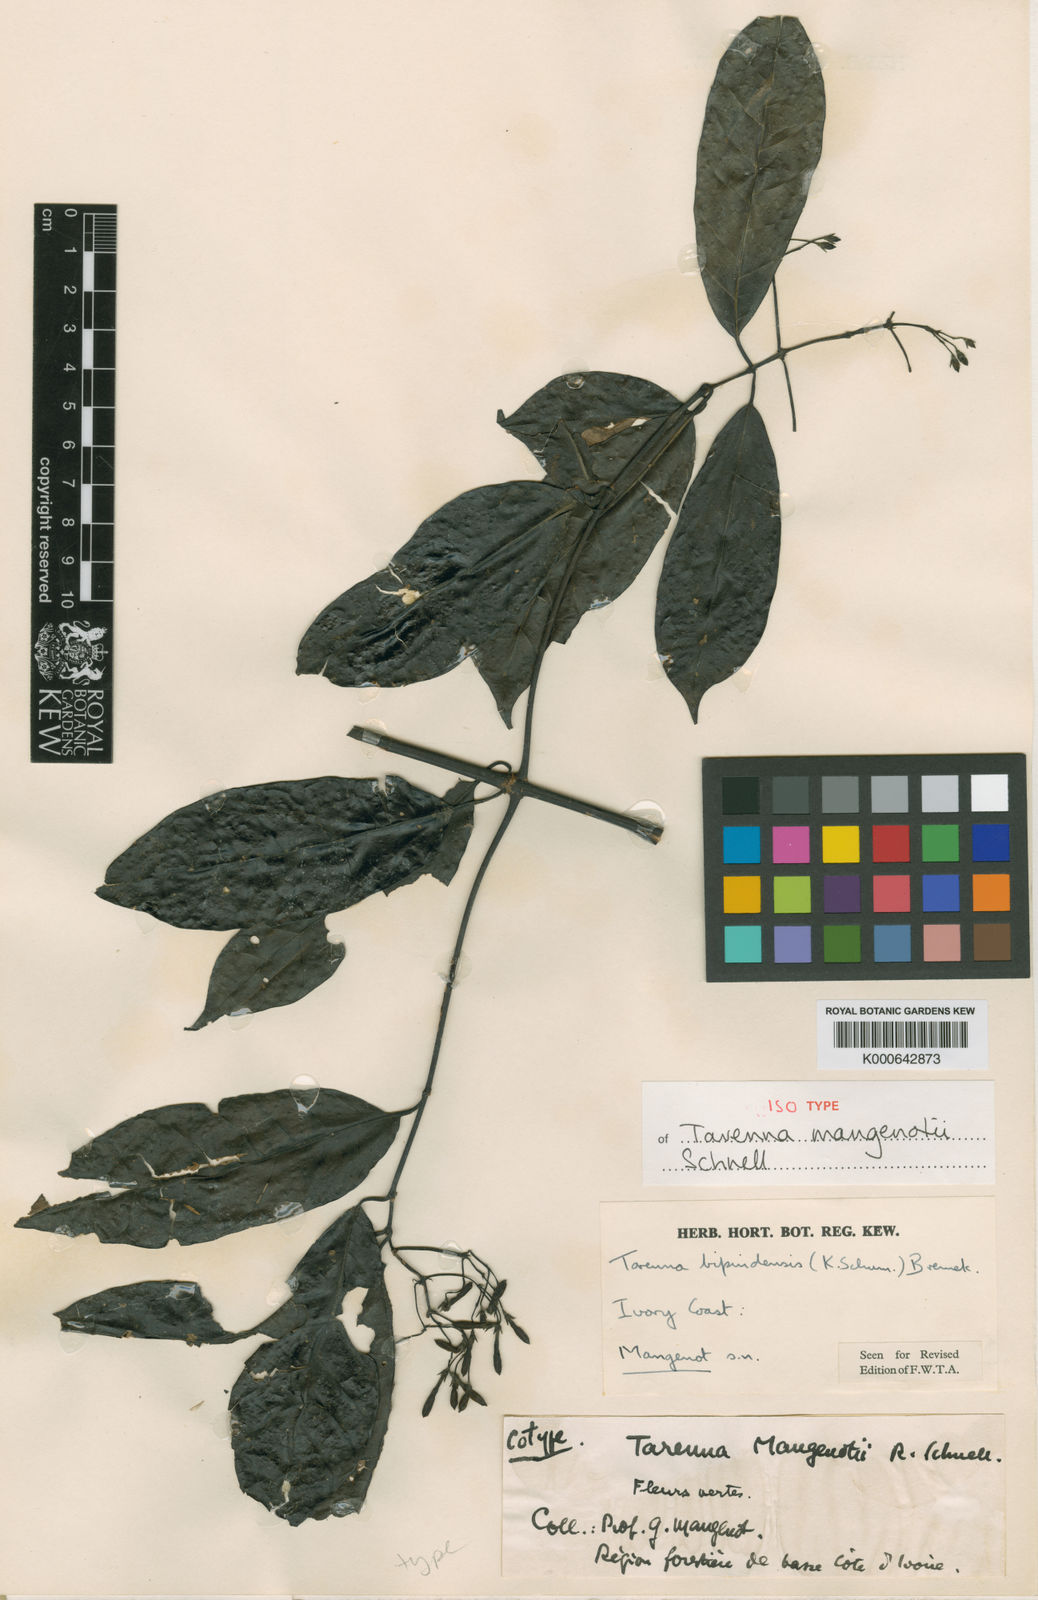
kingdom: Plantae
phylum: Tracheophyta
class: Magnoliopsida
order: Gentianales
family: Rubiaceae
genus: Tarenna
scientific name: Tarenna bipindensis
